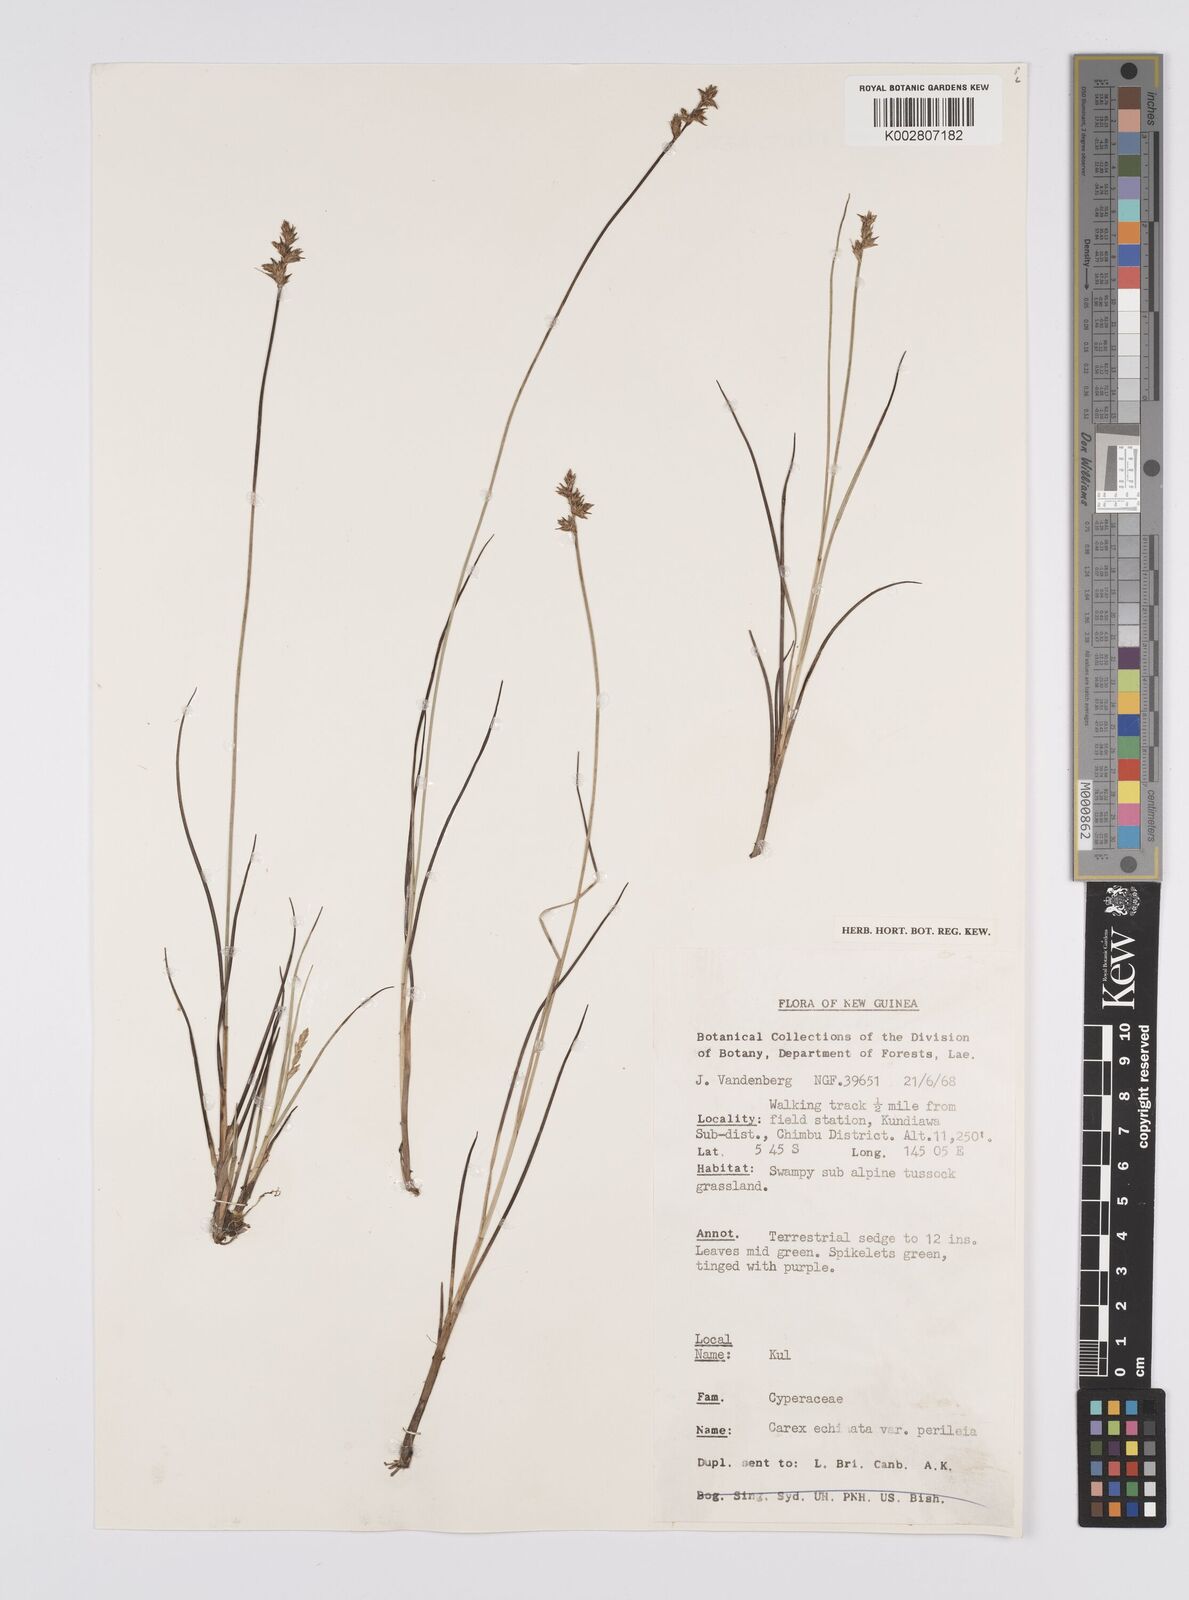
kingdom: Plantae
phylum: Tracheophyta
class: Liliopsida
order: Poales
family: Cyperaceae
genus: Carex
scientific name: Carex echinata
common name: Star sedge
